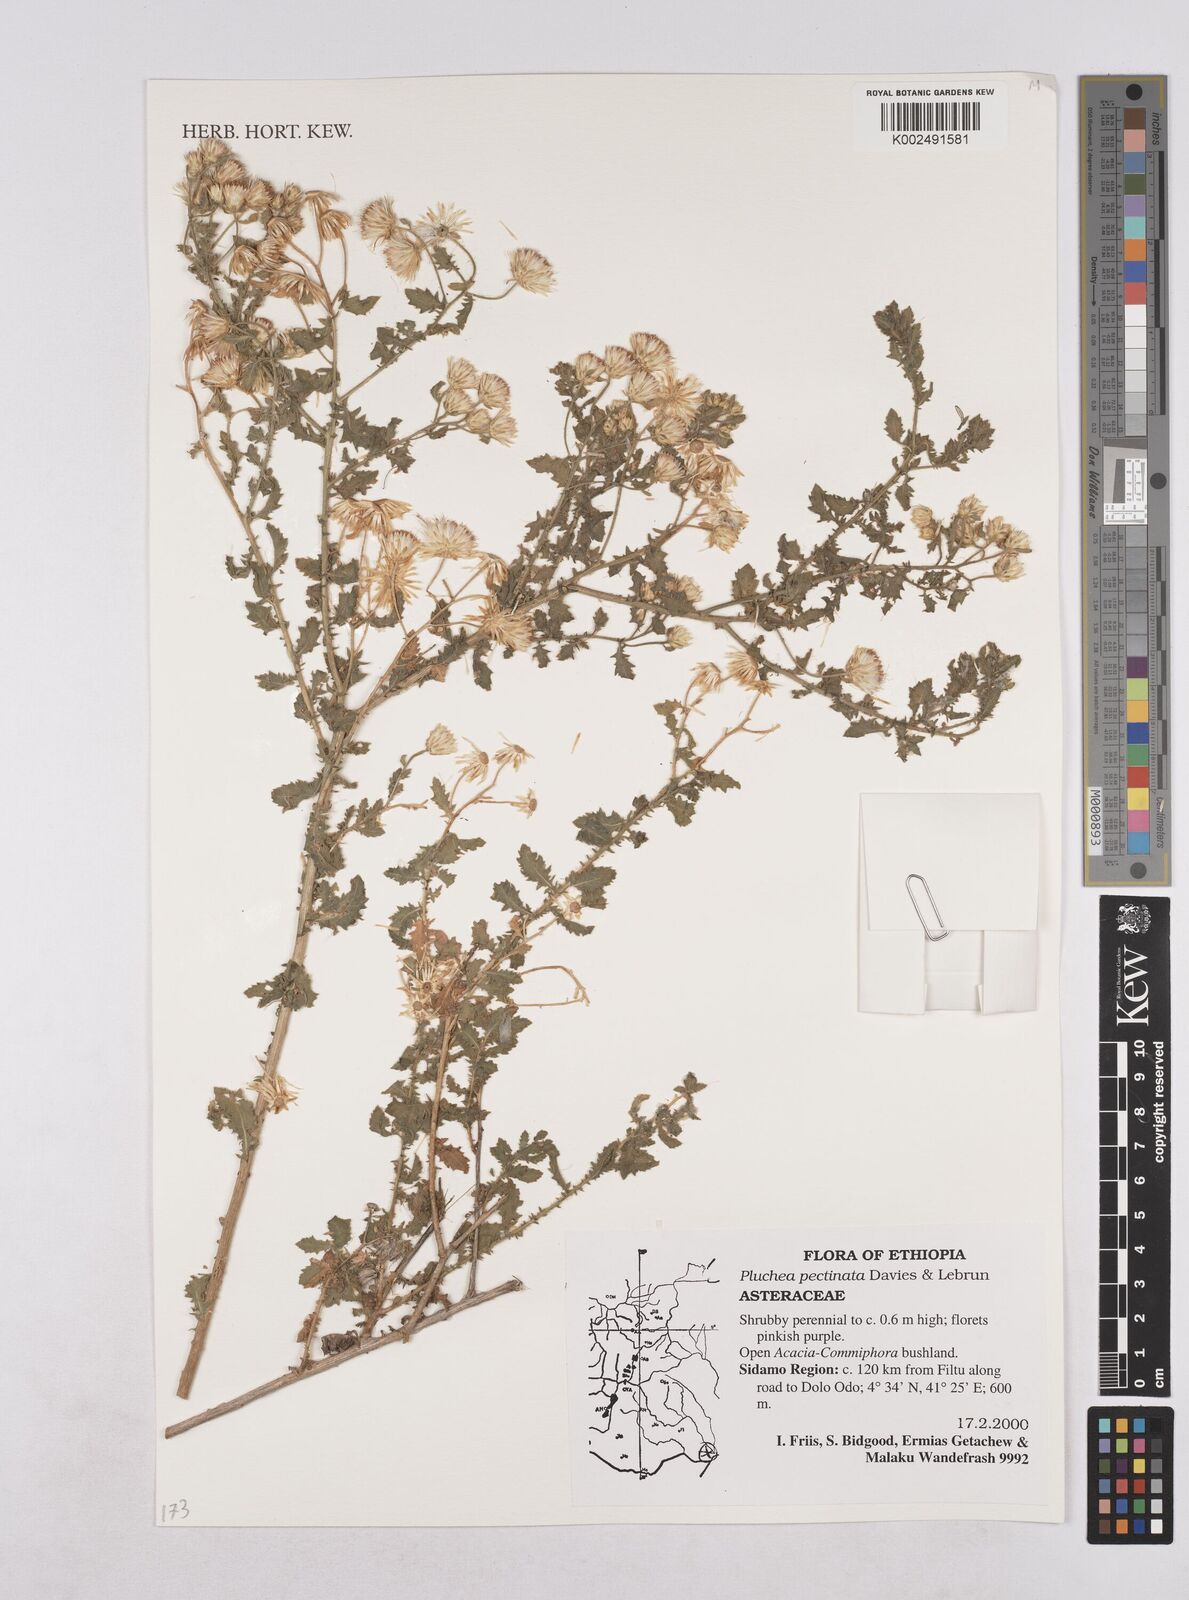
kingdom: Plantae
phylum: Tracheophyta
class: Magnoliopsida
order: Asterales
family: Asteraceae
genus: Pluchea
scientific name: Pluchea somaliensis
